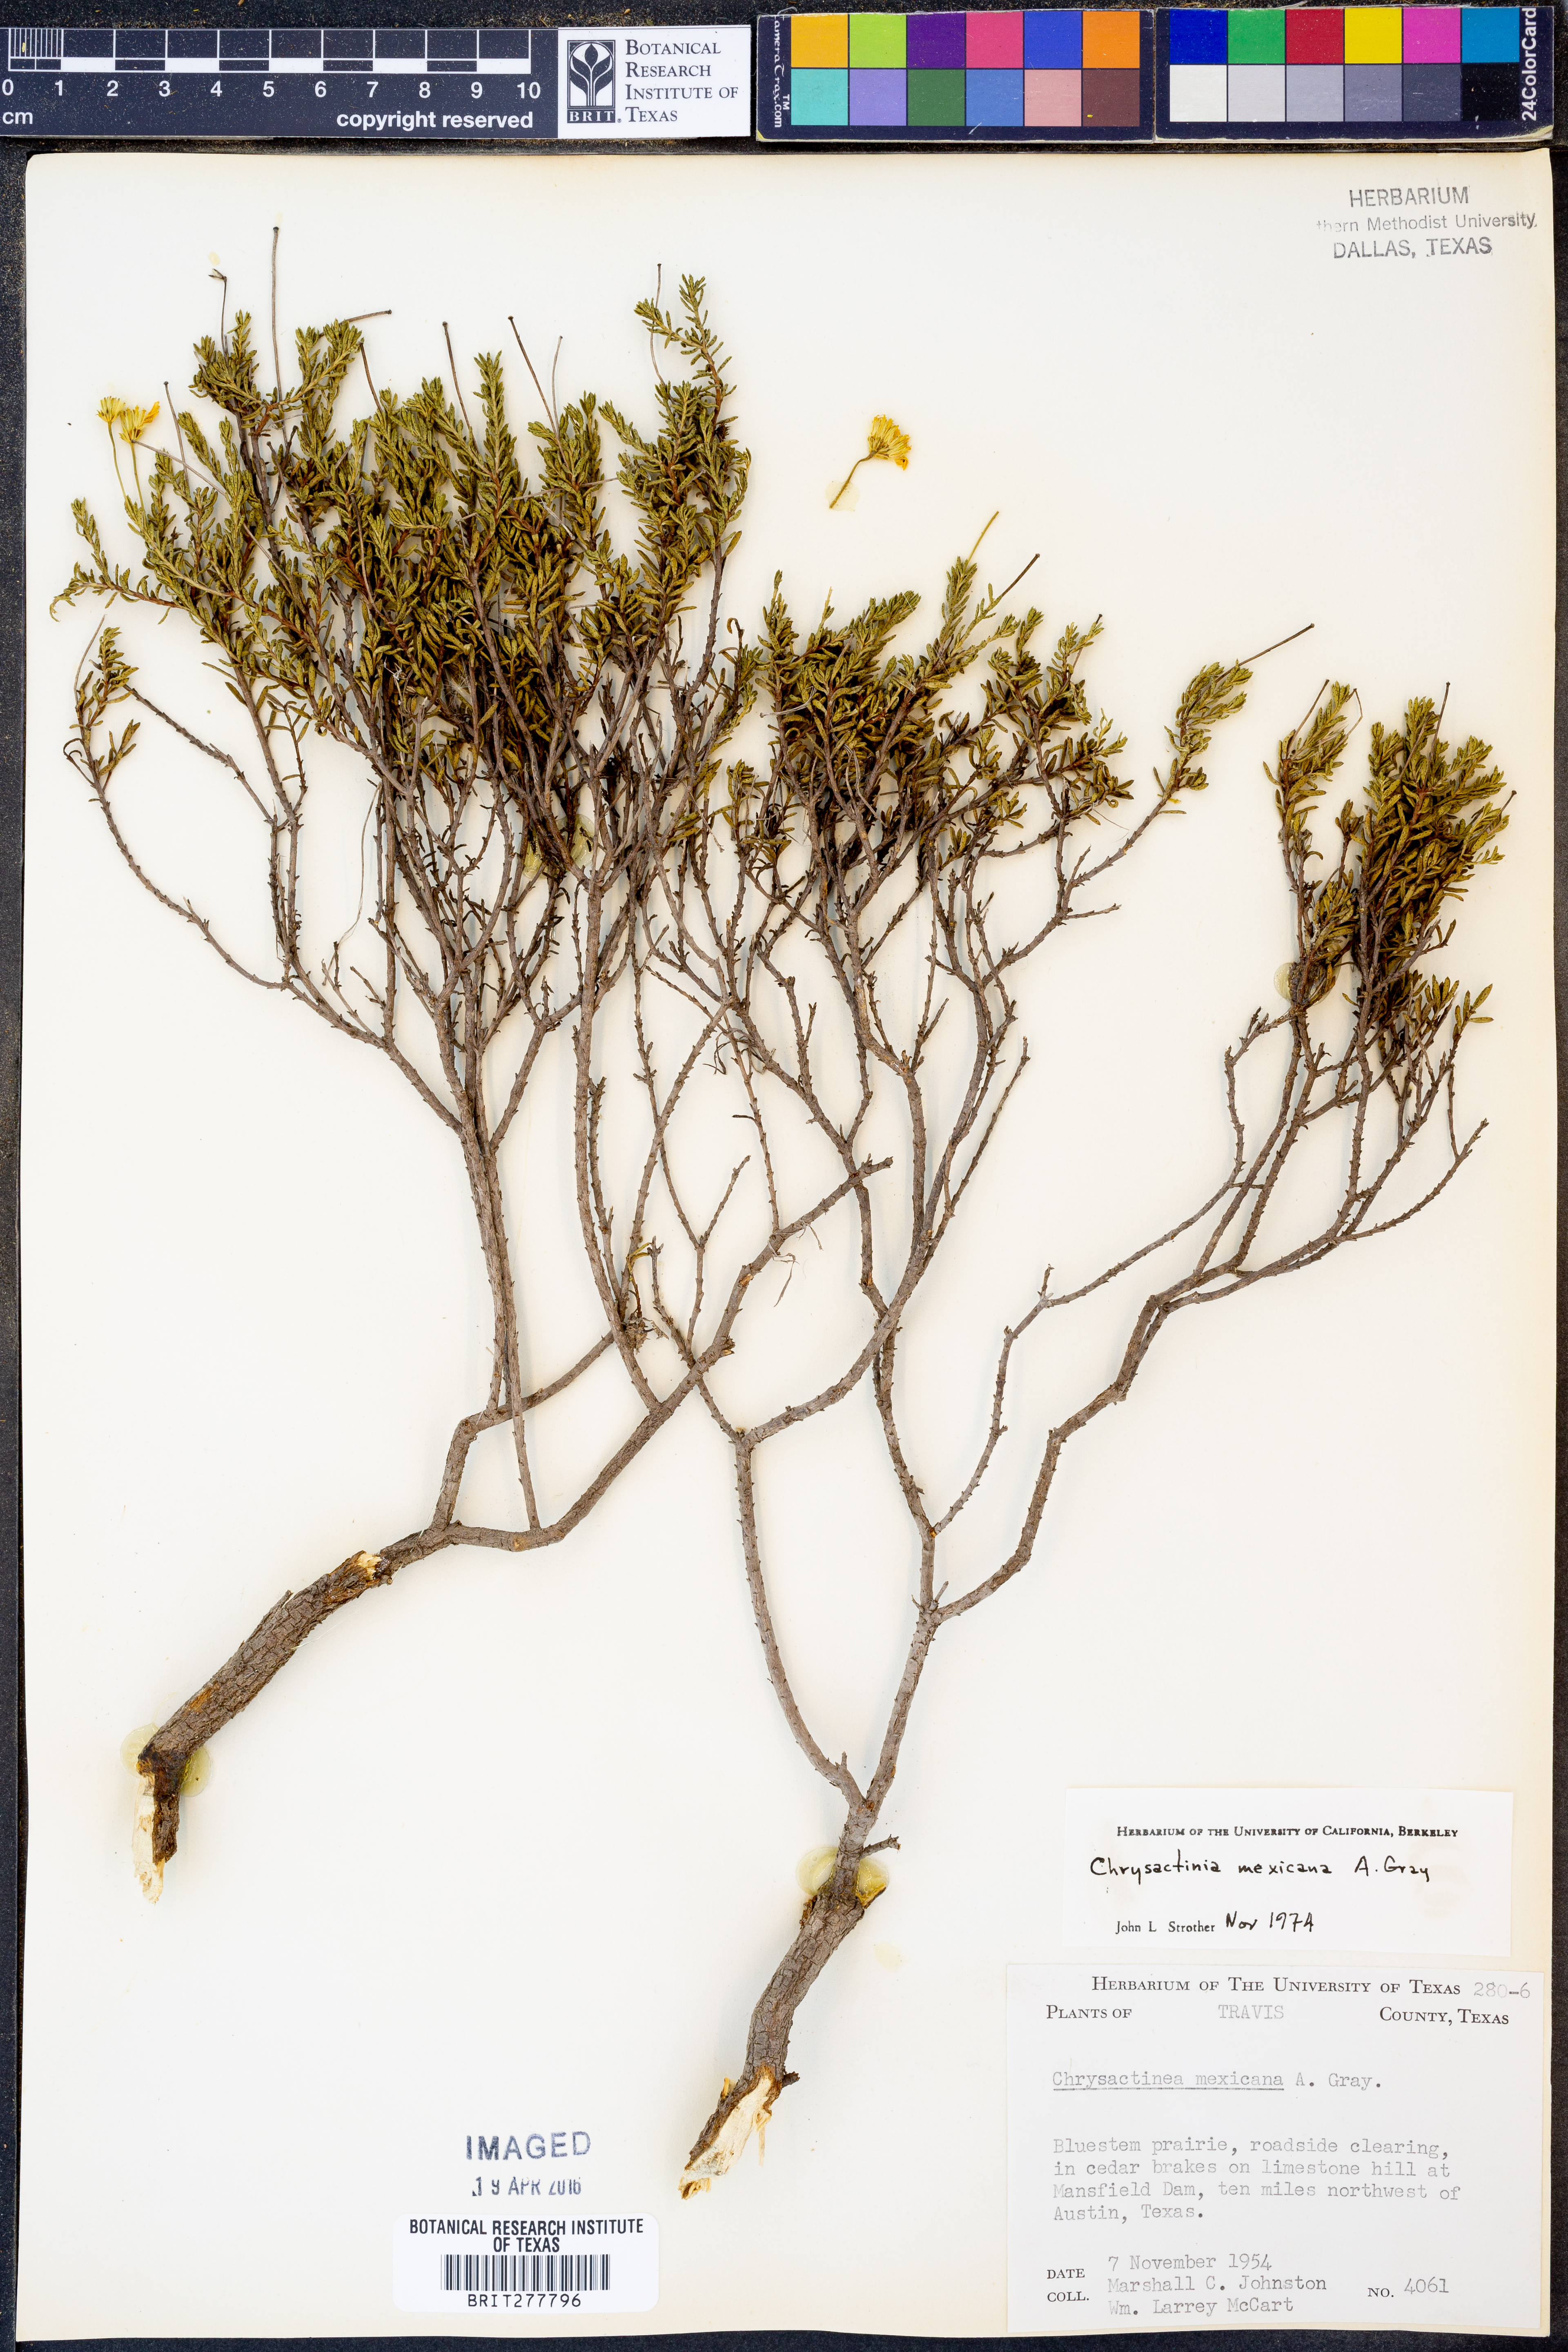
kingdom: Plantae
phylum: Tracheophyta
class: Magnoliopsida
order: Asterales
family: Asteraceae
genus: Chrysactinia
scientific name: Chrysactinia mexicana
